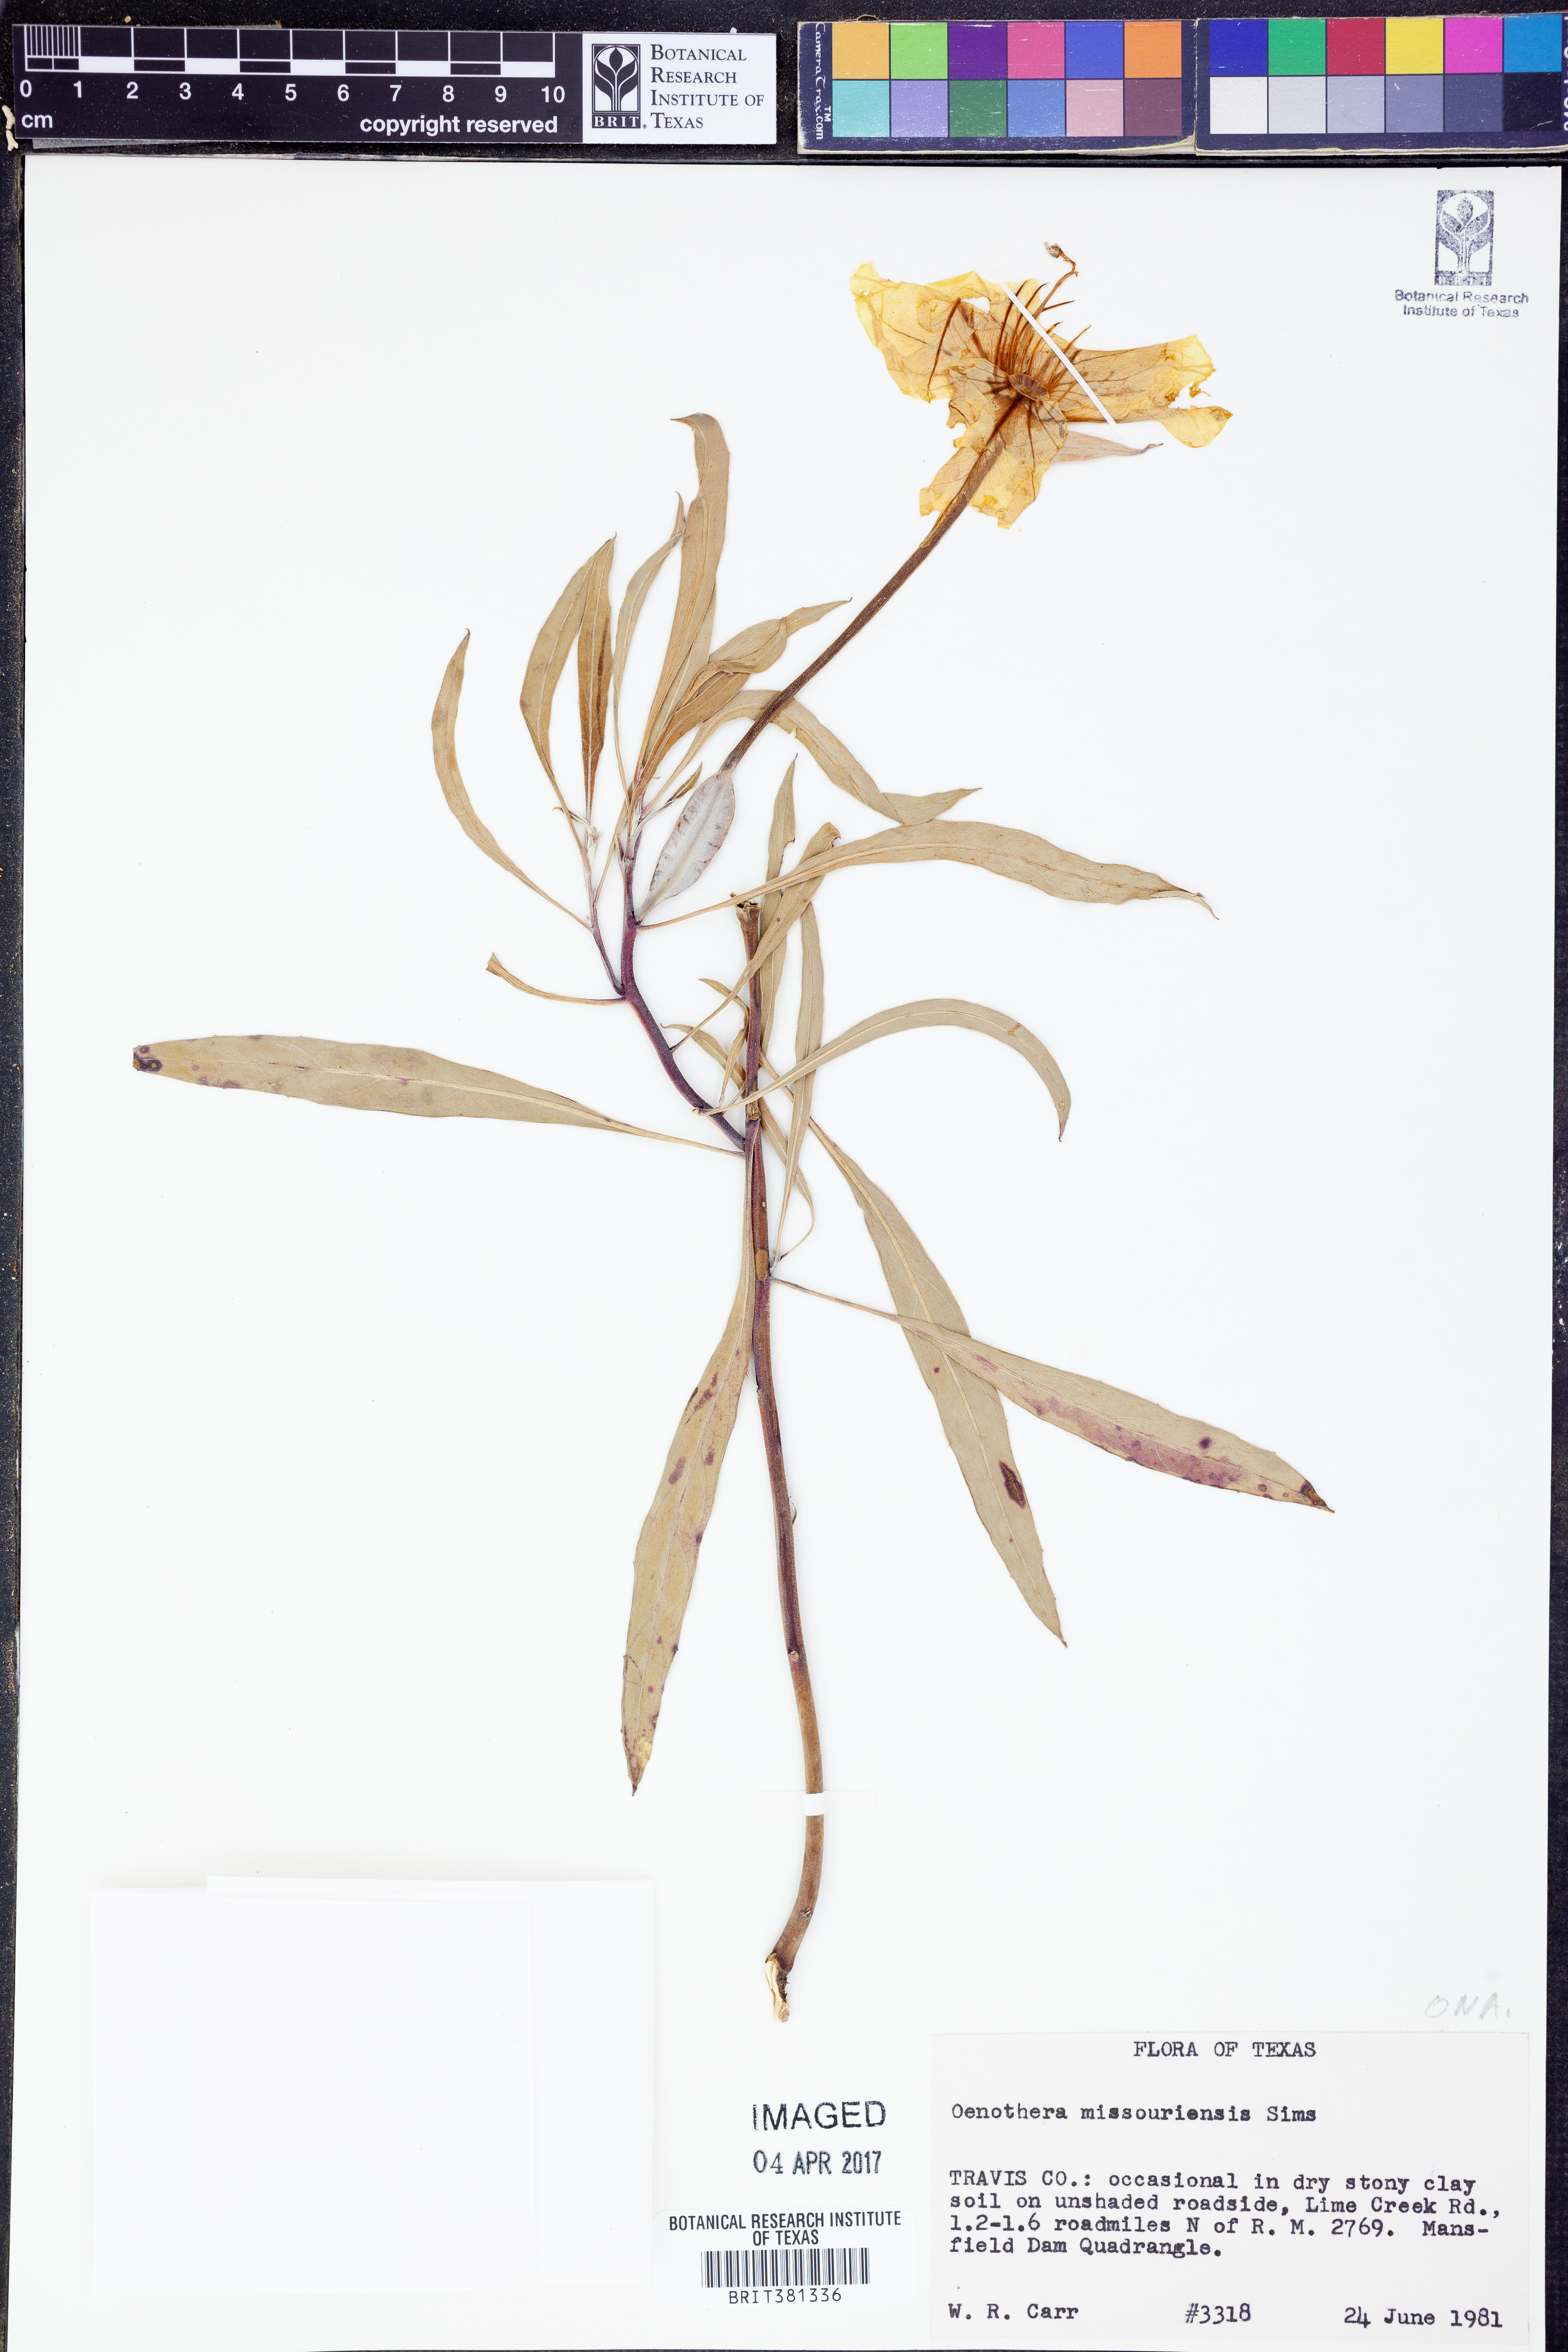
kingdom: Plantae
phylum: Tracheophyta
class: Magnoliopsida
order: Myrtales
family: Onagraceae
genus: Oenothera
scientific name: Oenothera macrocarpa
